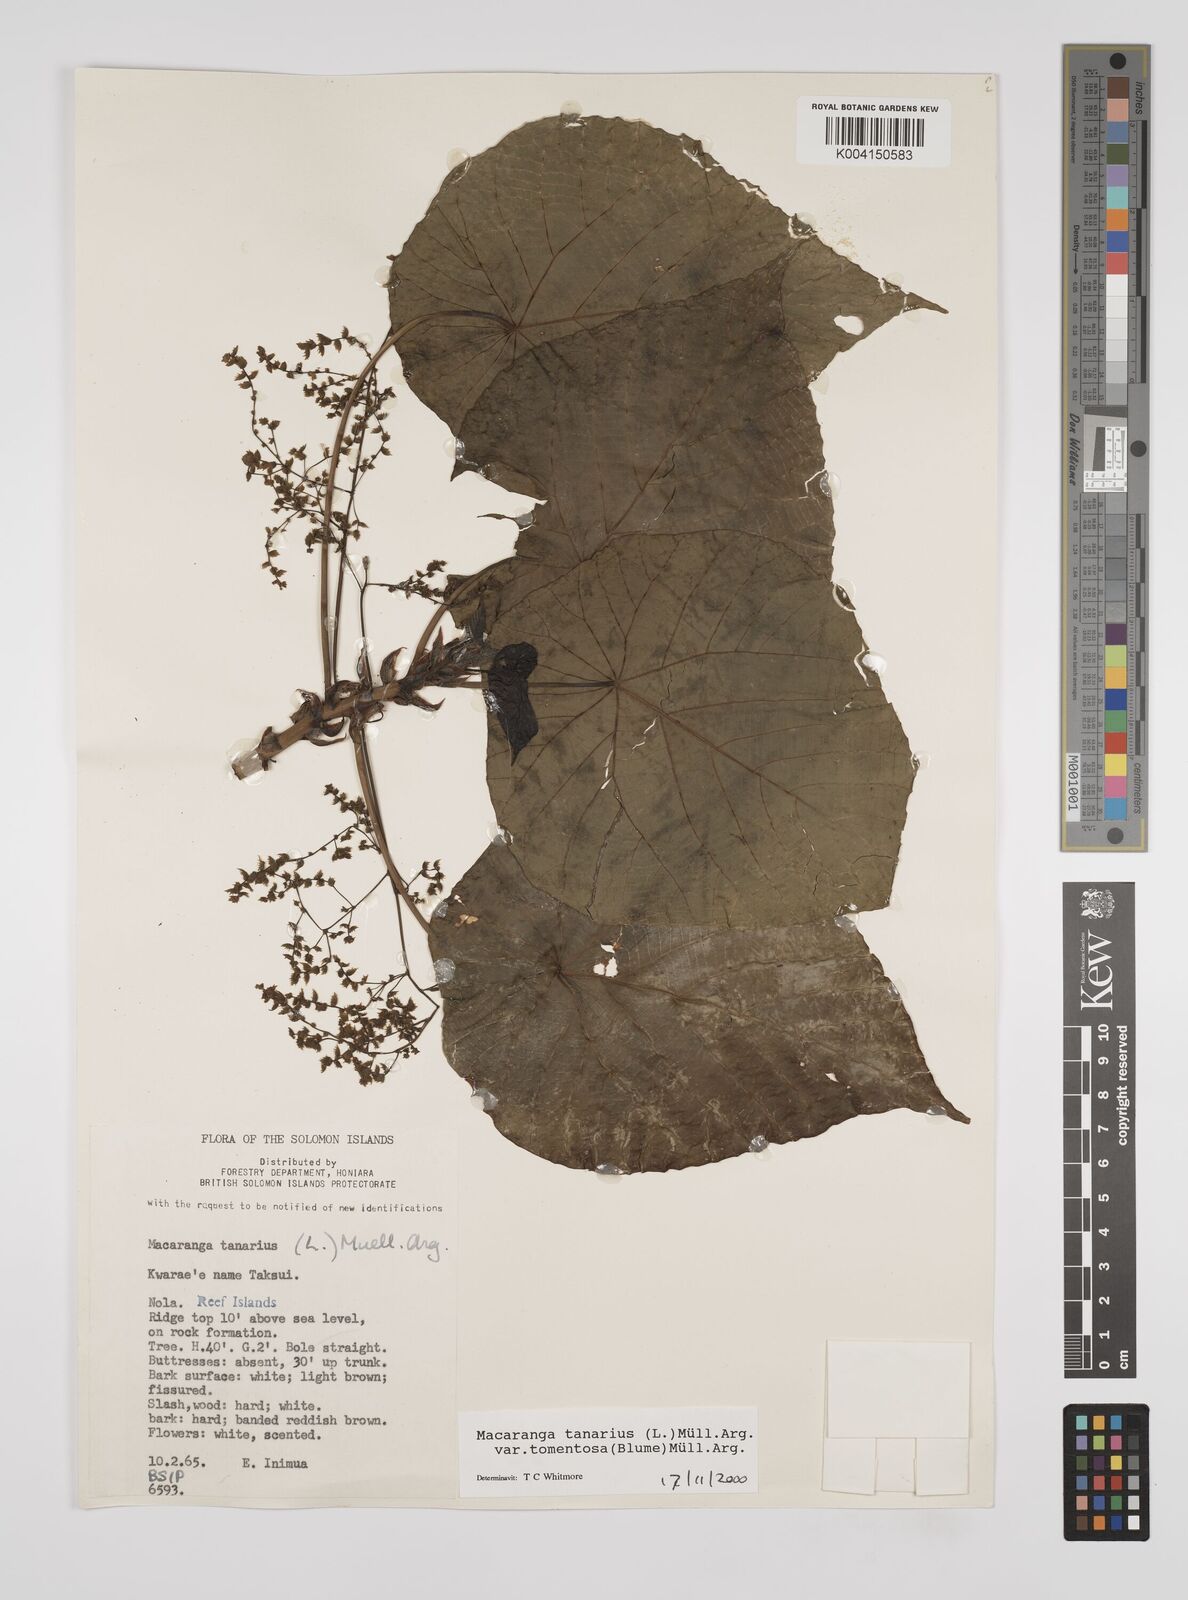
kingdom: Plantae
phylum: Tracheophyta
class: Magnoliopsida
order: Malpighiales
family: Euphorbiaceae
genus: Macaranga
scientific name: Macaranga tanarius
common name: Parasol leaf tree
